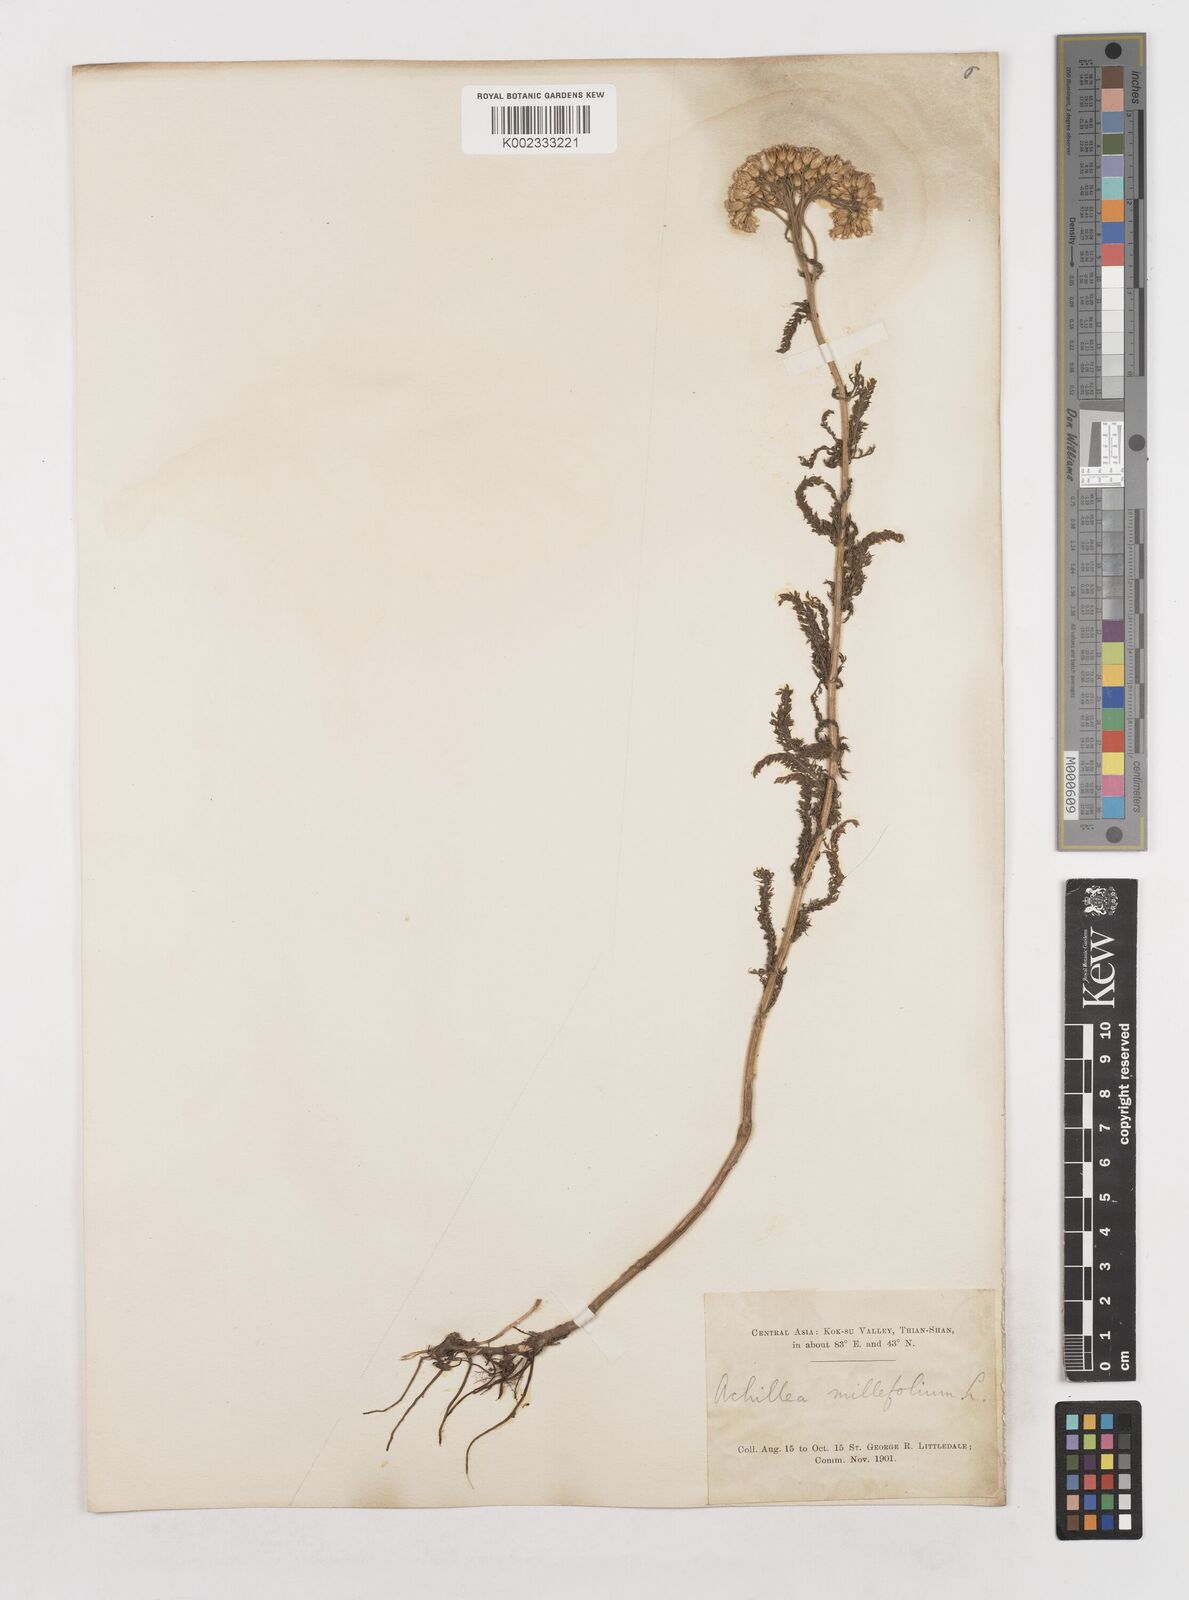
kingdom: Plantae
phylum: Tracheophyta
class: Magnoliopsida
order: Asterales
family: Asteraceae
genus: Achillea
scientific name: Achillea millefolium
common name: Yarrow
